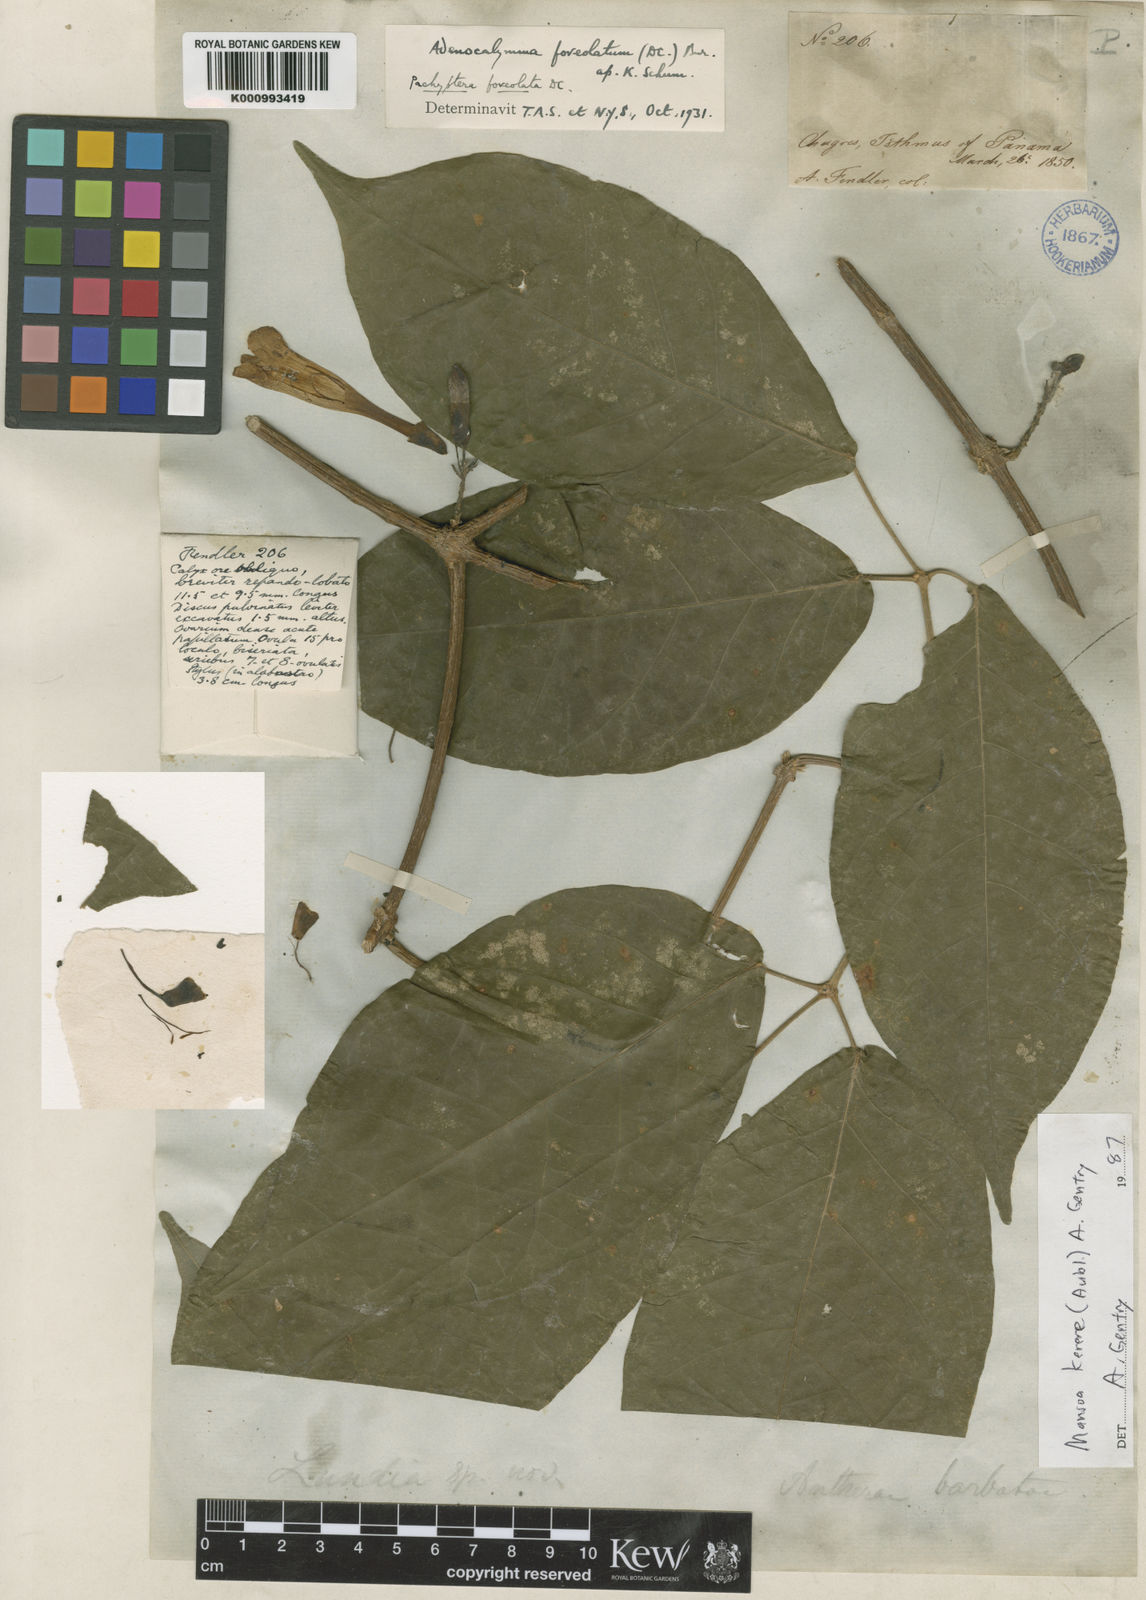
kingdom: Plantae
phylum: Tracheophyta
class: Magnoliopsida
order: Lamiales
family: Bignoniaceae
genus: Pachyptera
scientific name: Pachyptera kerere
